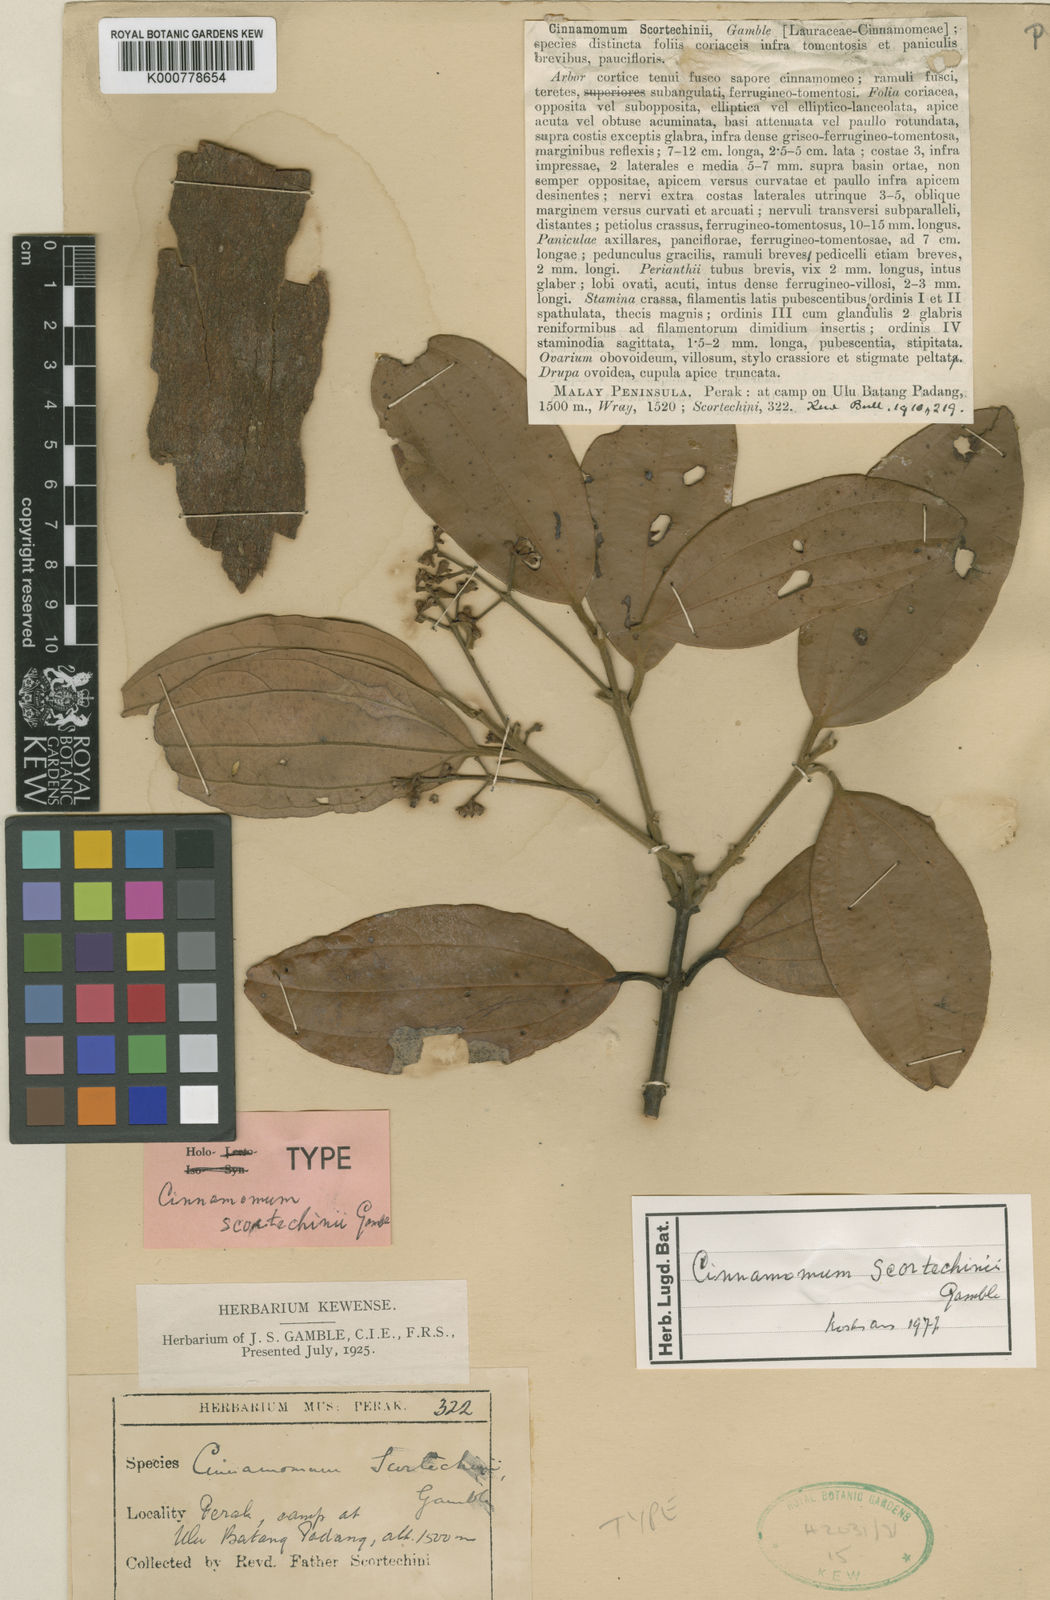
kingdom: Plantae
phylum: Tracheophyta
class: Magnoliopsida
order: Laurales
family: Lauraceae
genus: Cinnamomum
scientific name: Cinnamomum scortechinii
